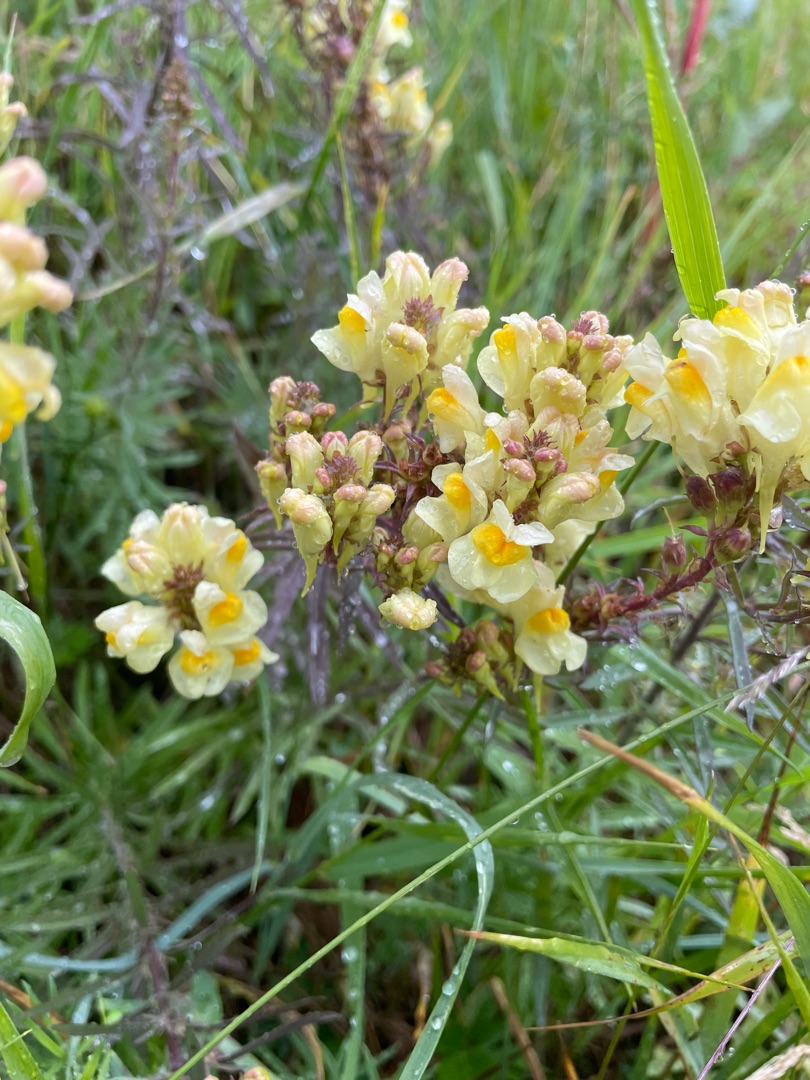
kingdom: Plantae
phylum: Tracheophyta
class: Magnoliopsida
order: Lamiales
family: Plantaginaceae
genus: Linaria
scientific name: Linaria vulgaris
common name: Almindelig torskemund
